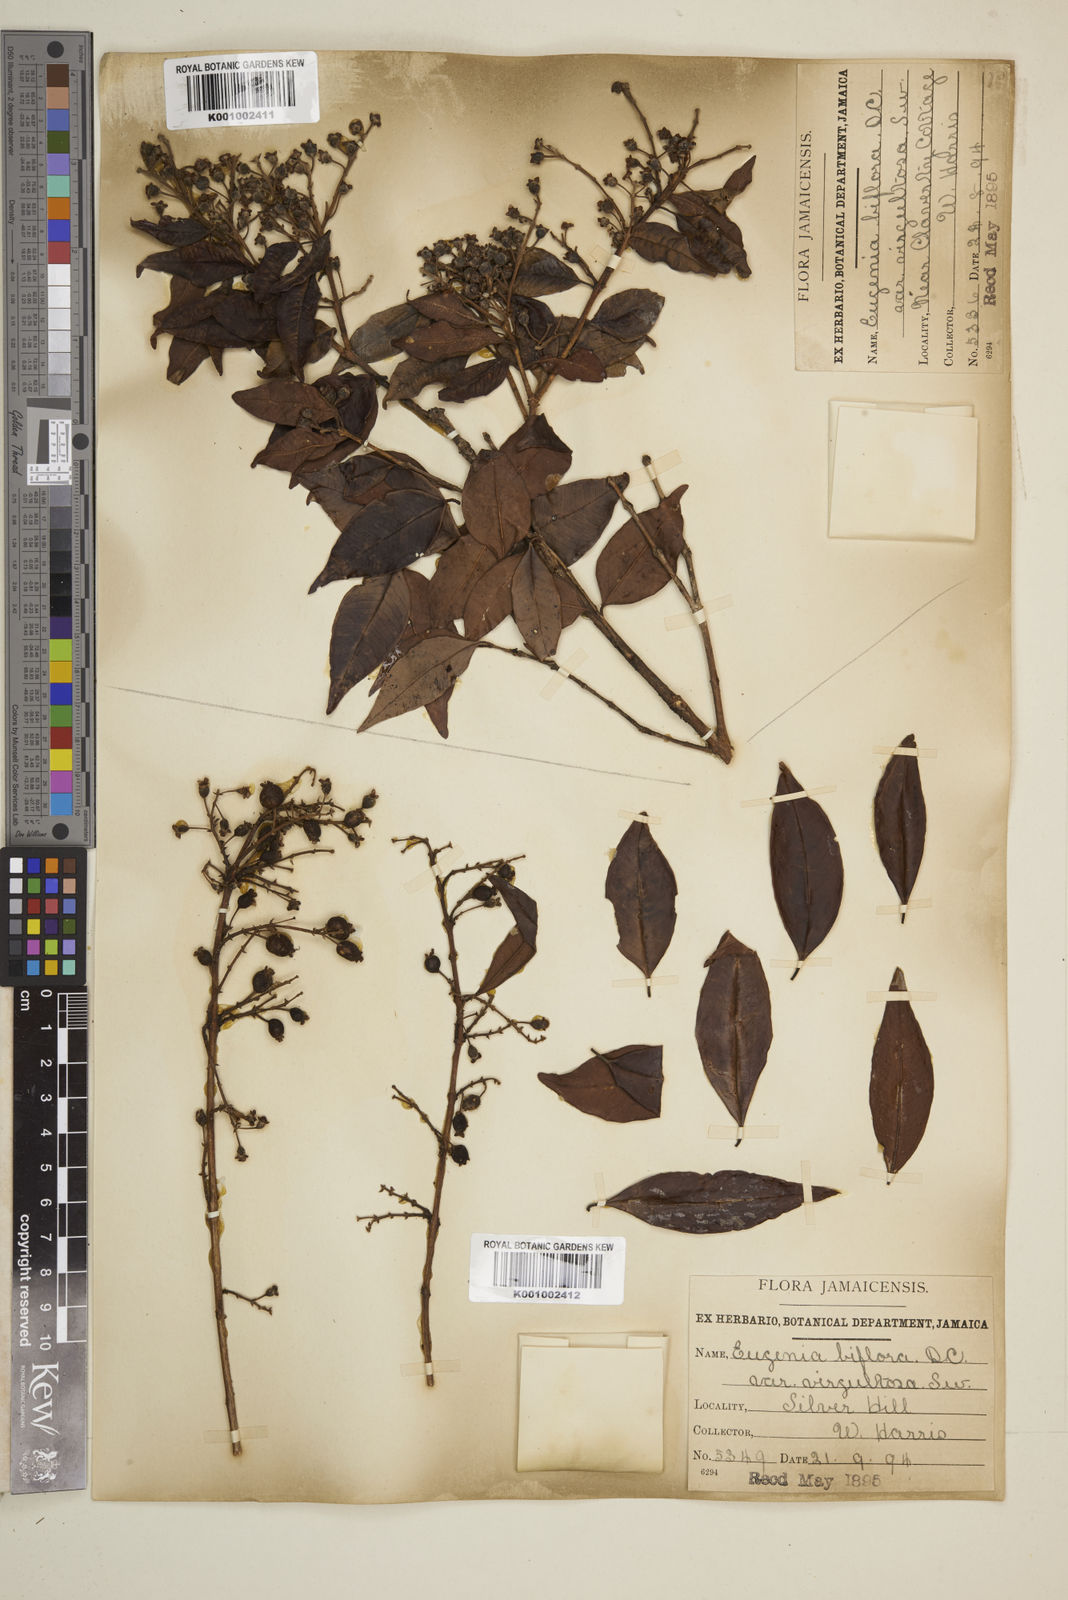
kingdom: Plantae
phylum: Tracheophyta
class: Magnoliopsida
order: Myrtales
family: Myrtaceae
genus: Eugenia
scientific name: Eugenia biflora
